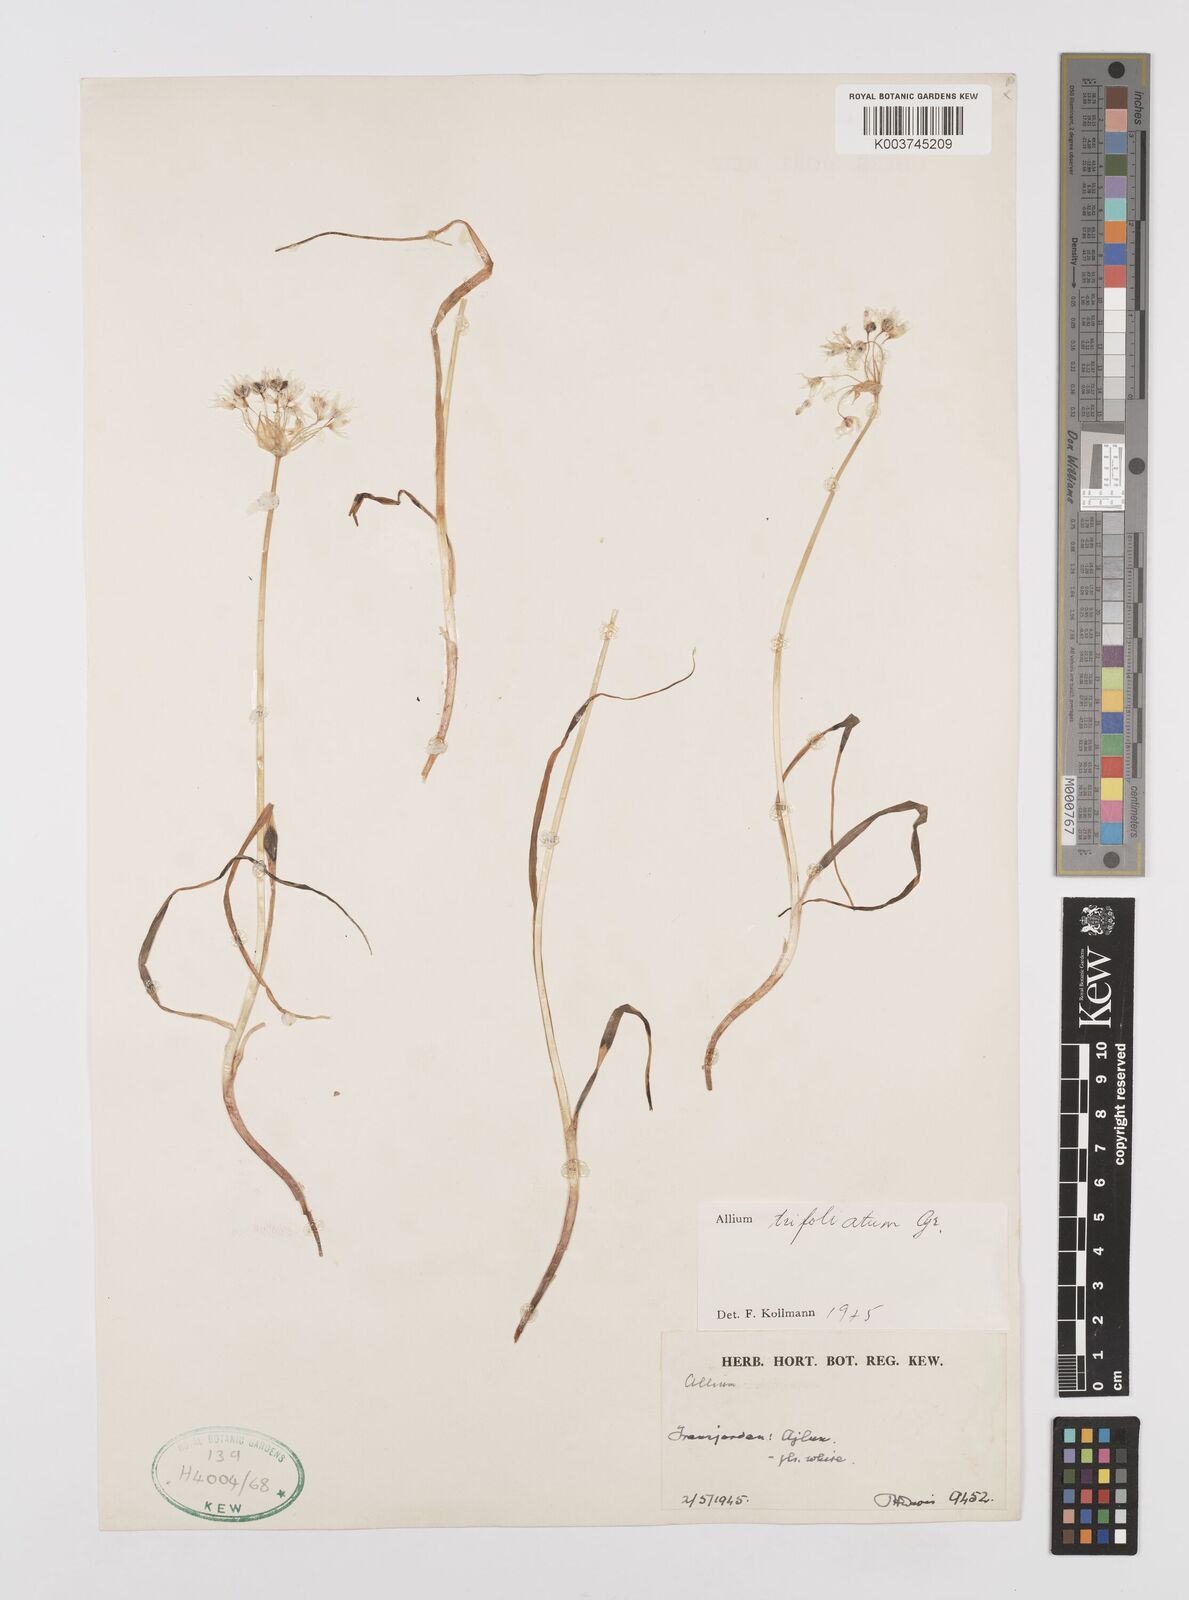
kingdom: Plantae
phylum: Tracheophyta
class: Liliopsida
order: Asparagales
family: Amaryllidaceae
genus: Allium
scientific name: Allium trifoliatum
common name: Pink garlic
